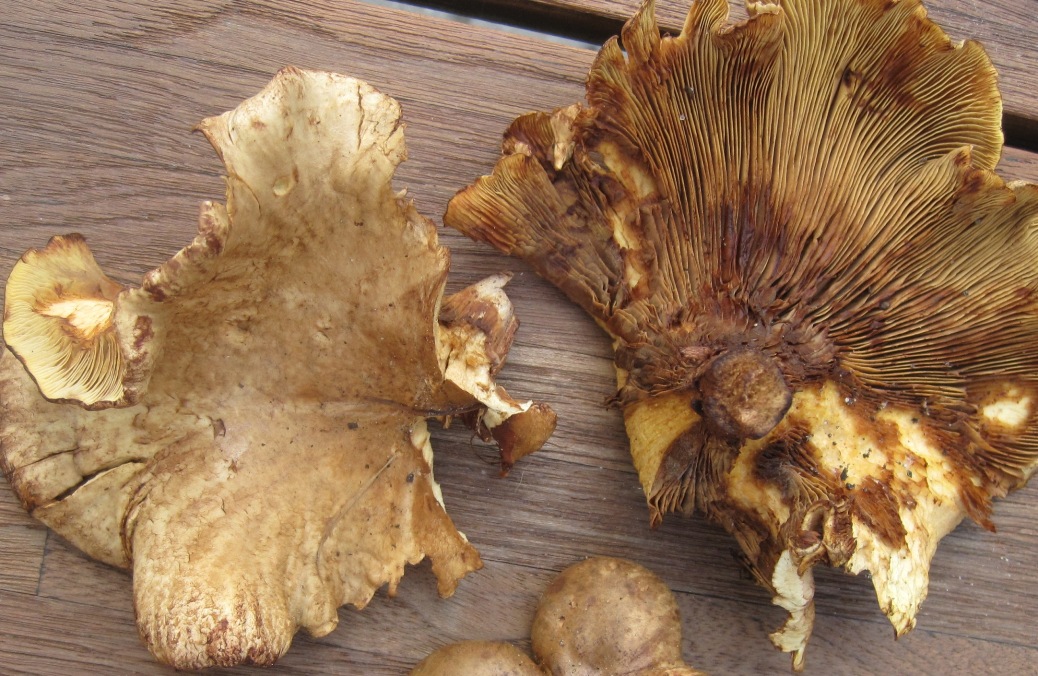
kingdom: Fungi
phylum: Basidiomycota
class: Agaricomycetes
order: Boletales
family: Paxillaceae
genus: Paxillus
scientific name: Paxillus rubicundulus
